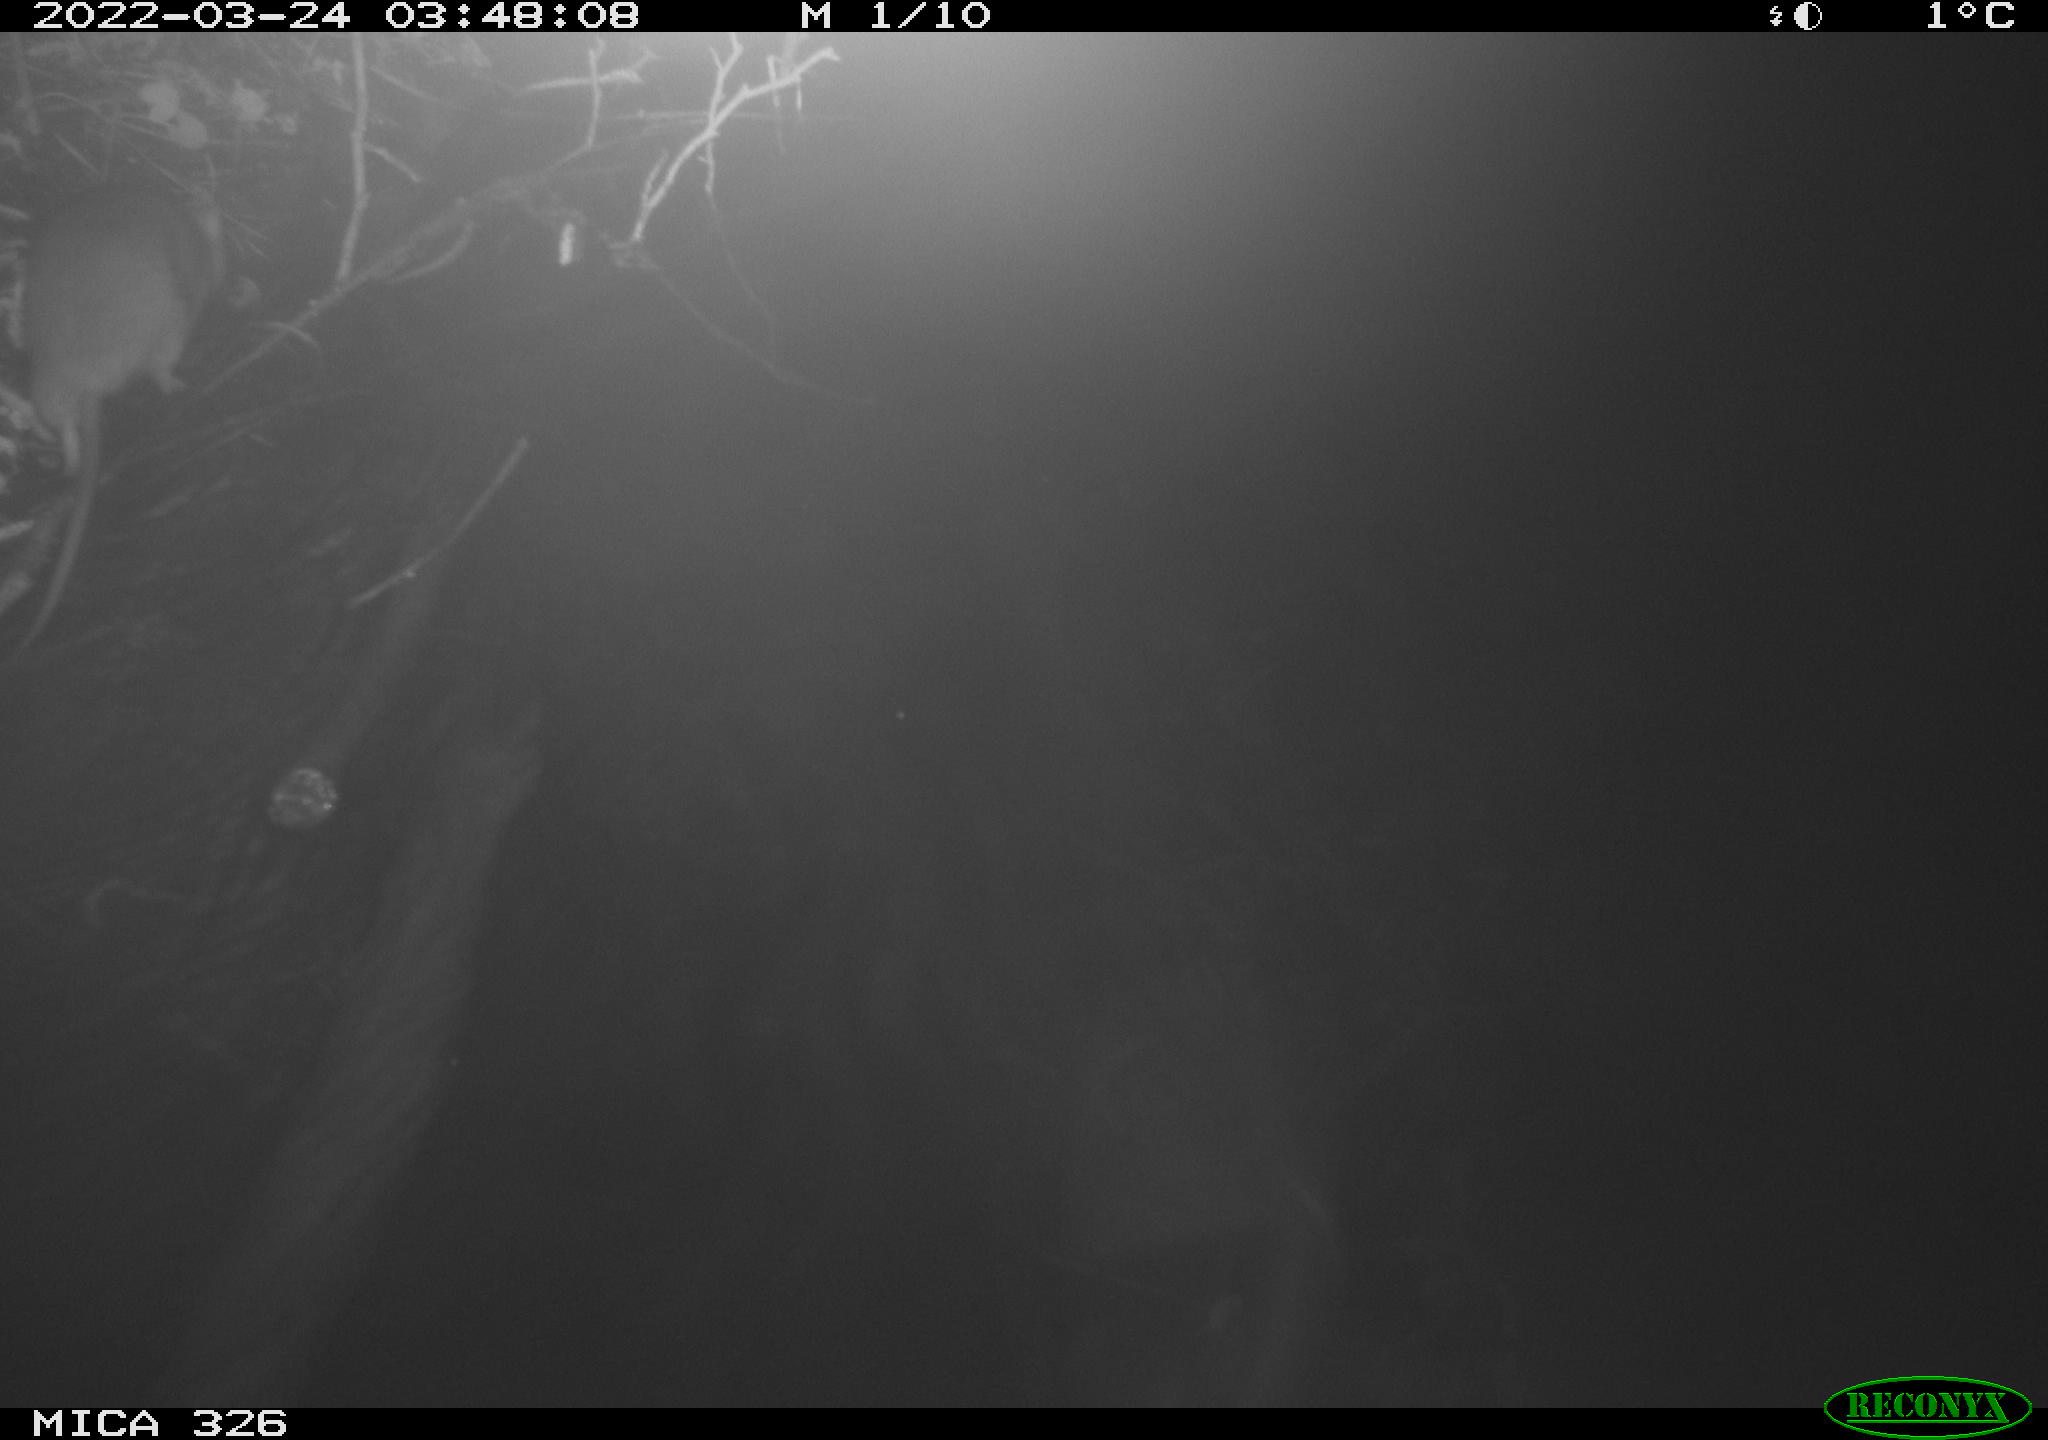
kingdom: Animalia
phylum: Chordata
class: Mammalia
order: Rodentia
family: Muridae
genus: Rattus
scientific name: Rattus norvegicus
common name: Brown rat
